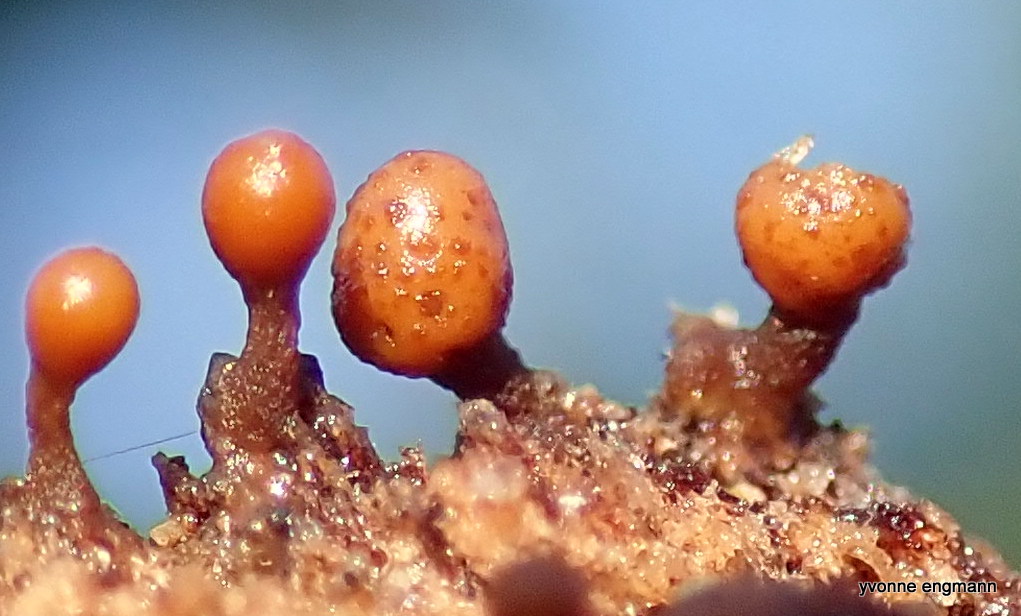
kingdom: Protozoa
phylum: Mycetozoa
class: Myxomycetes
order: Trichiales
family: Trichiaceae
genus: Trichia
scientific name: Trichia ambigua
